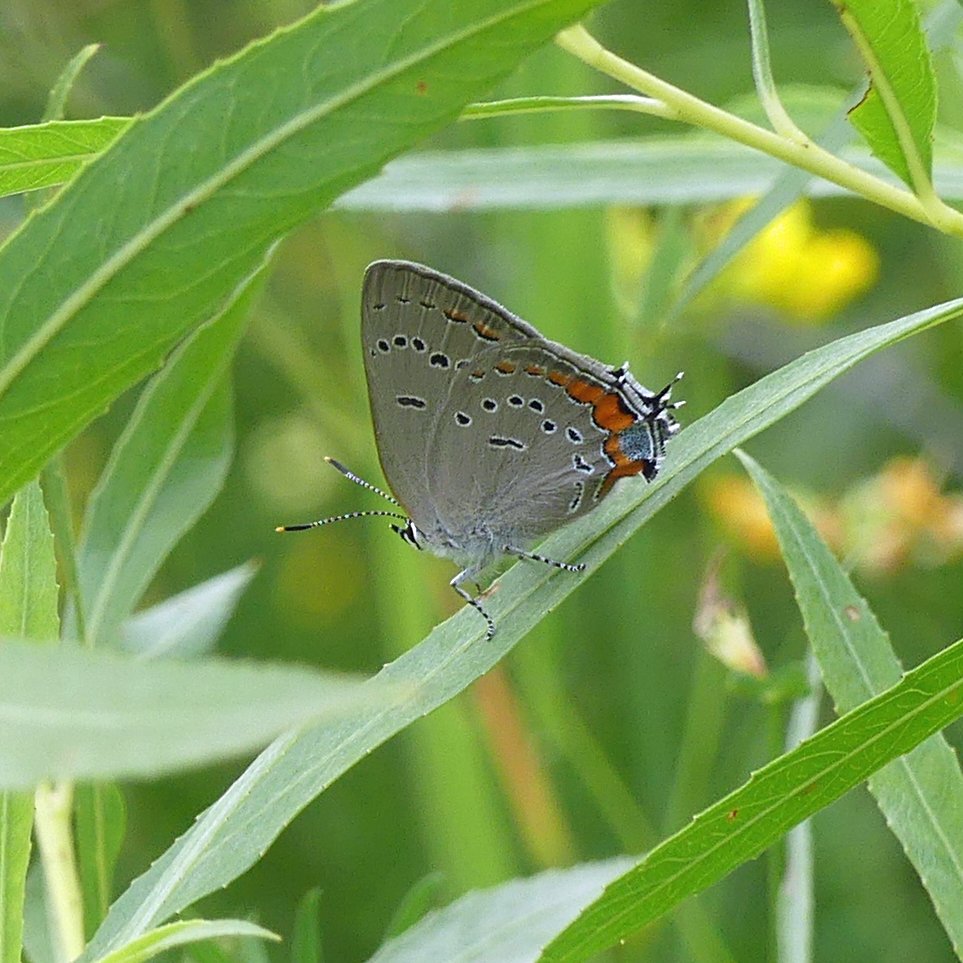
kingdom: Animalia
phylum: Arthropoda
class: Insecta
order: Lepidoptera
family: Lycaenidae
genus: Strymon
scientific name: Strymon acadica
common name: Acadian Hairstreak
